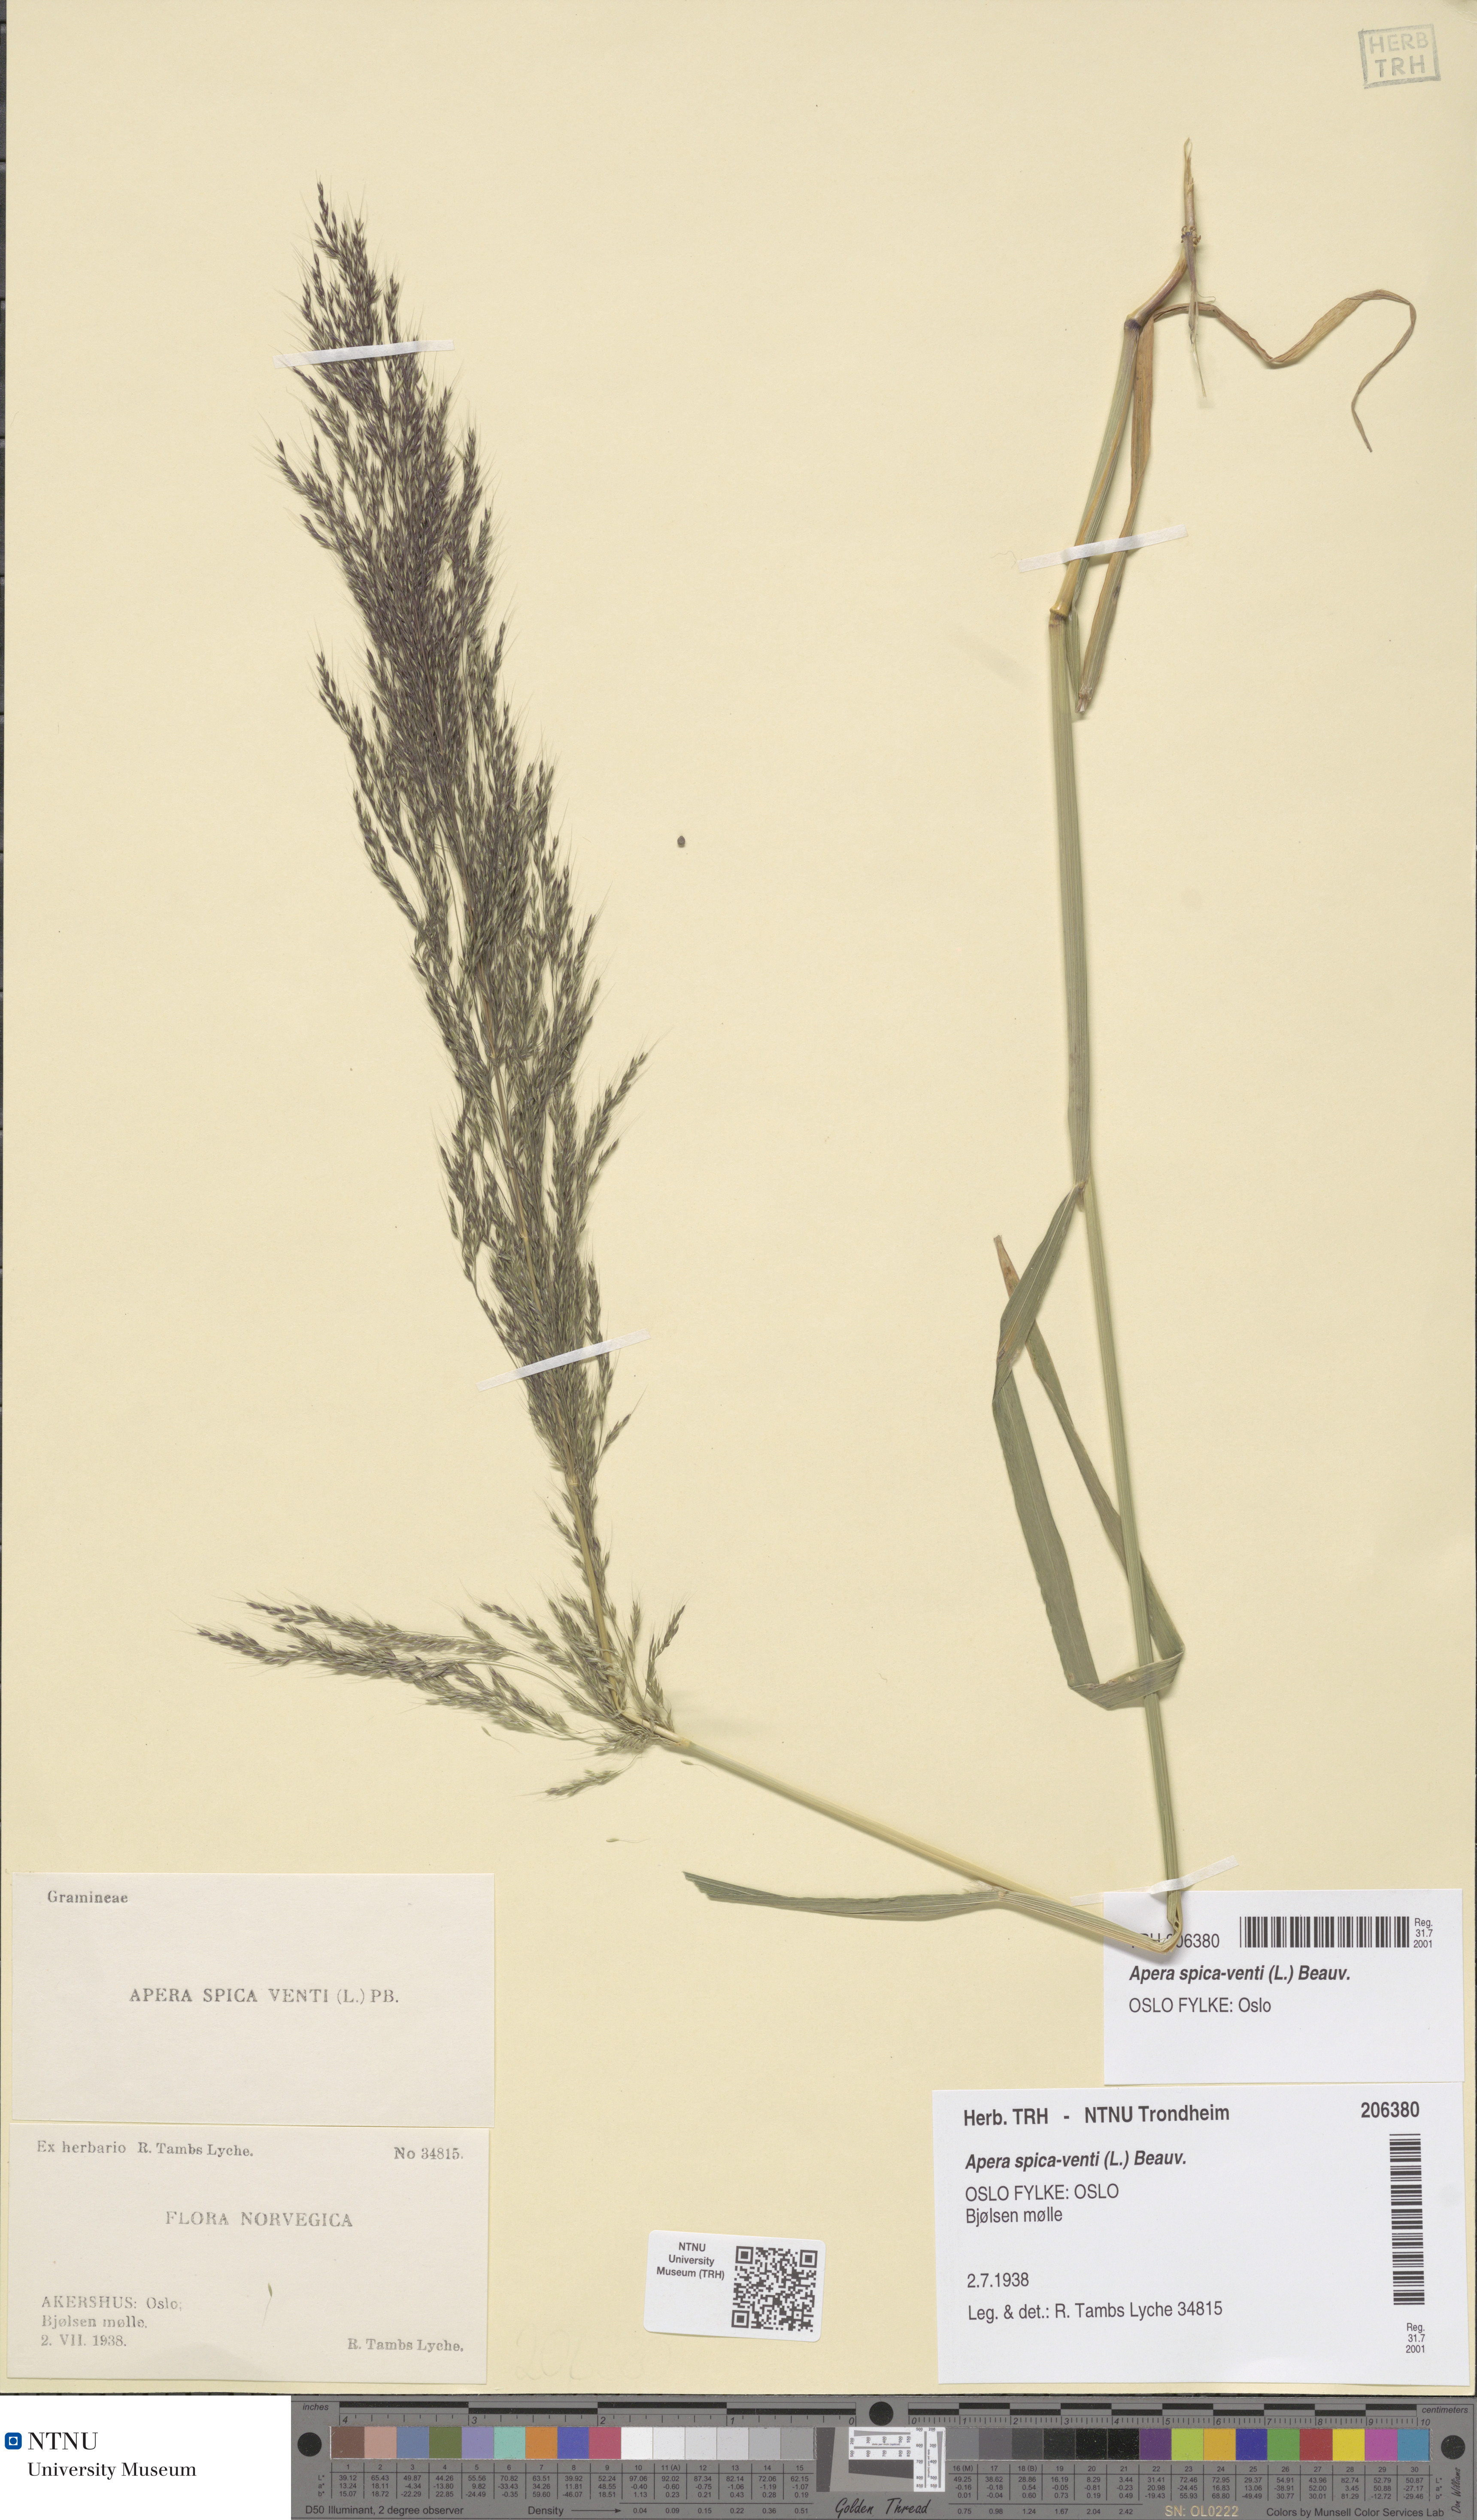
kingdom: Plantae
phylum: Tracheophyta
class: Liliopsida
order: Poales
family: Poaceae
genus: Apera
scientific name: Apera spica-venti
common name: Loose silky-bent
